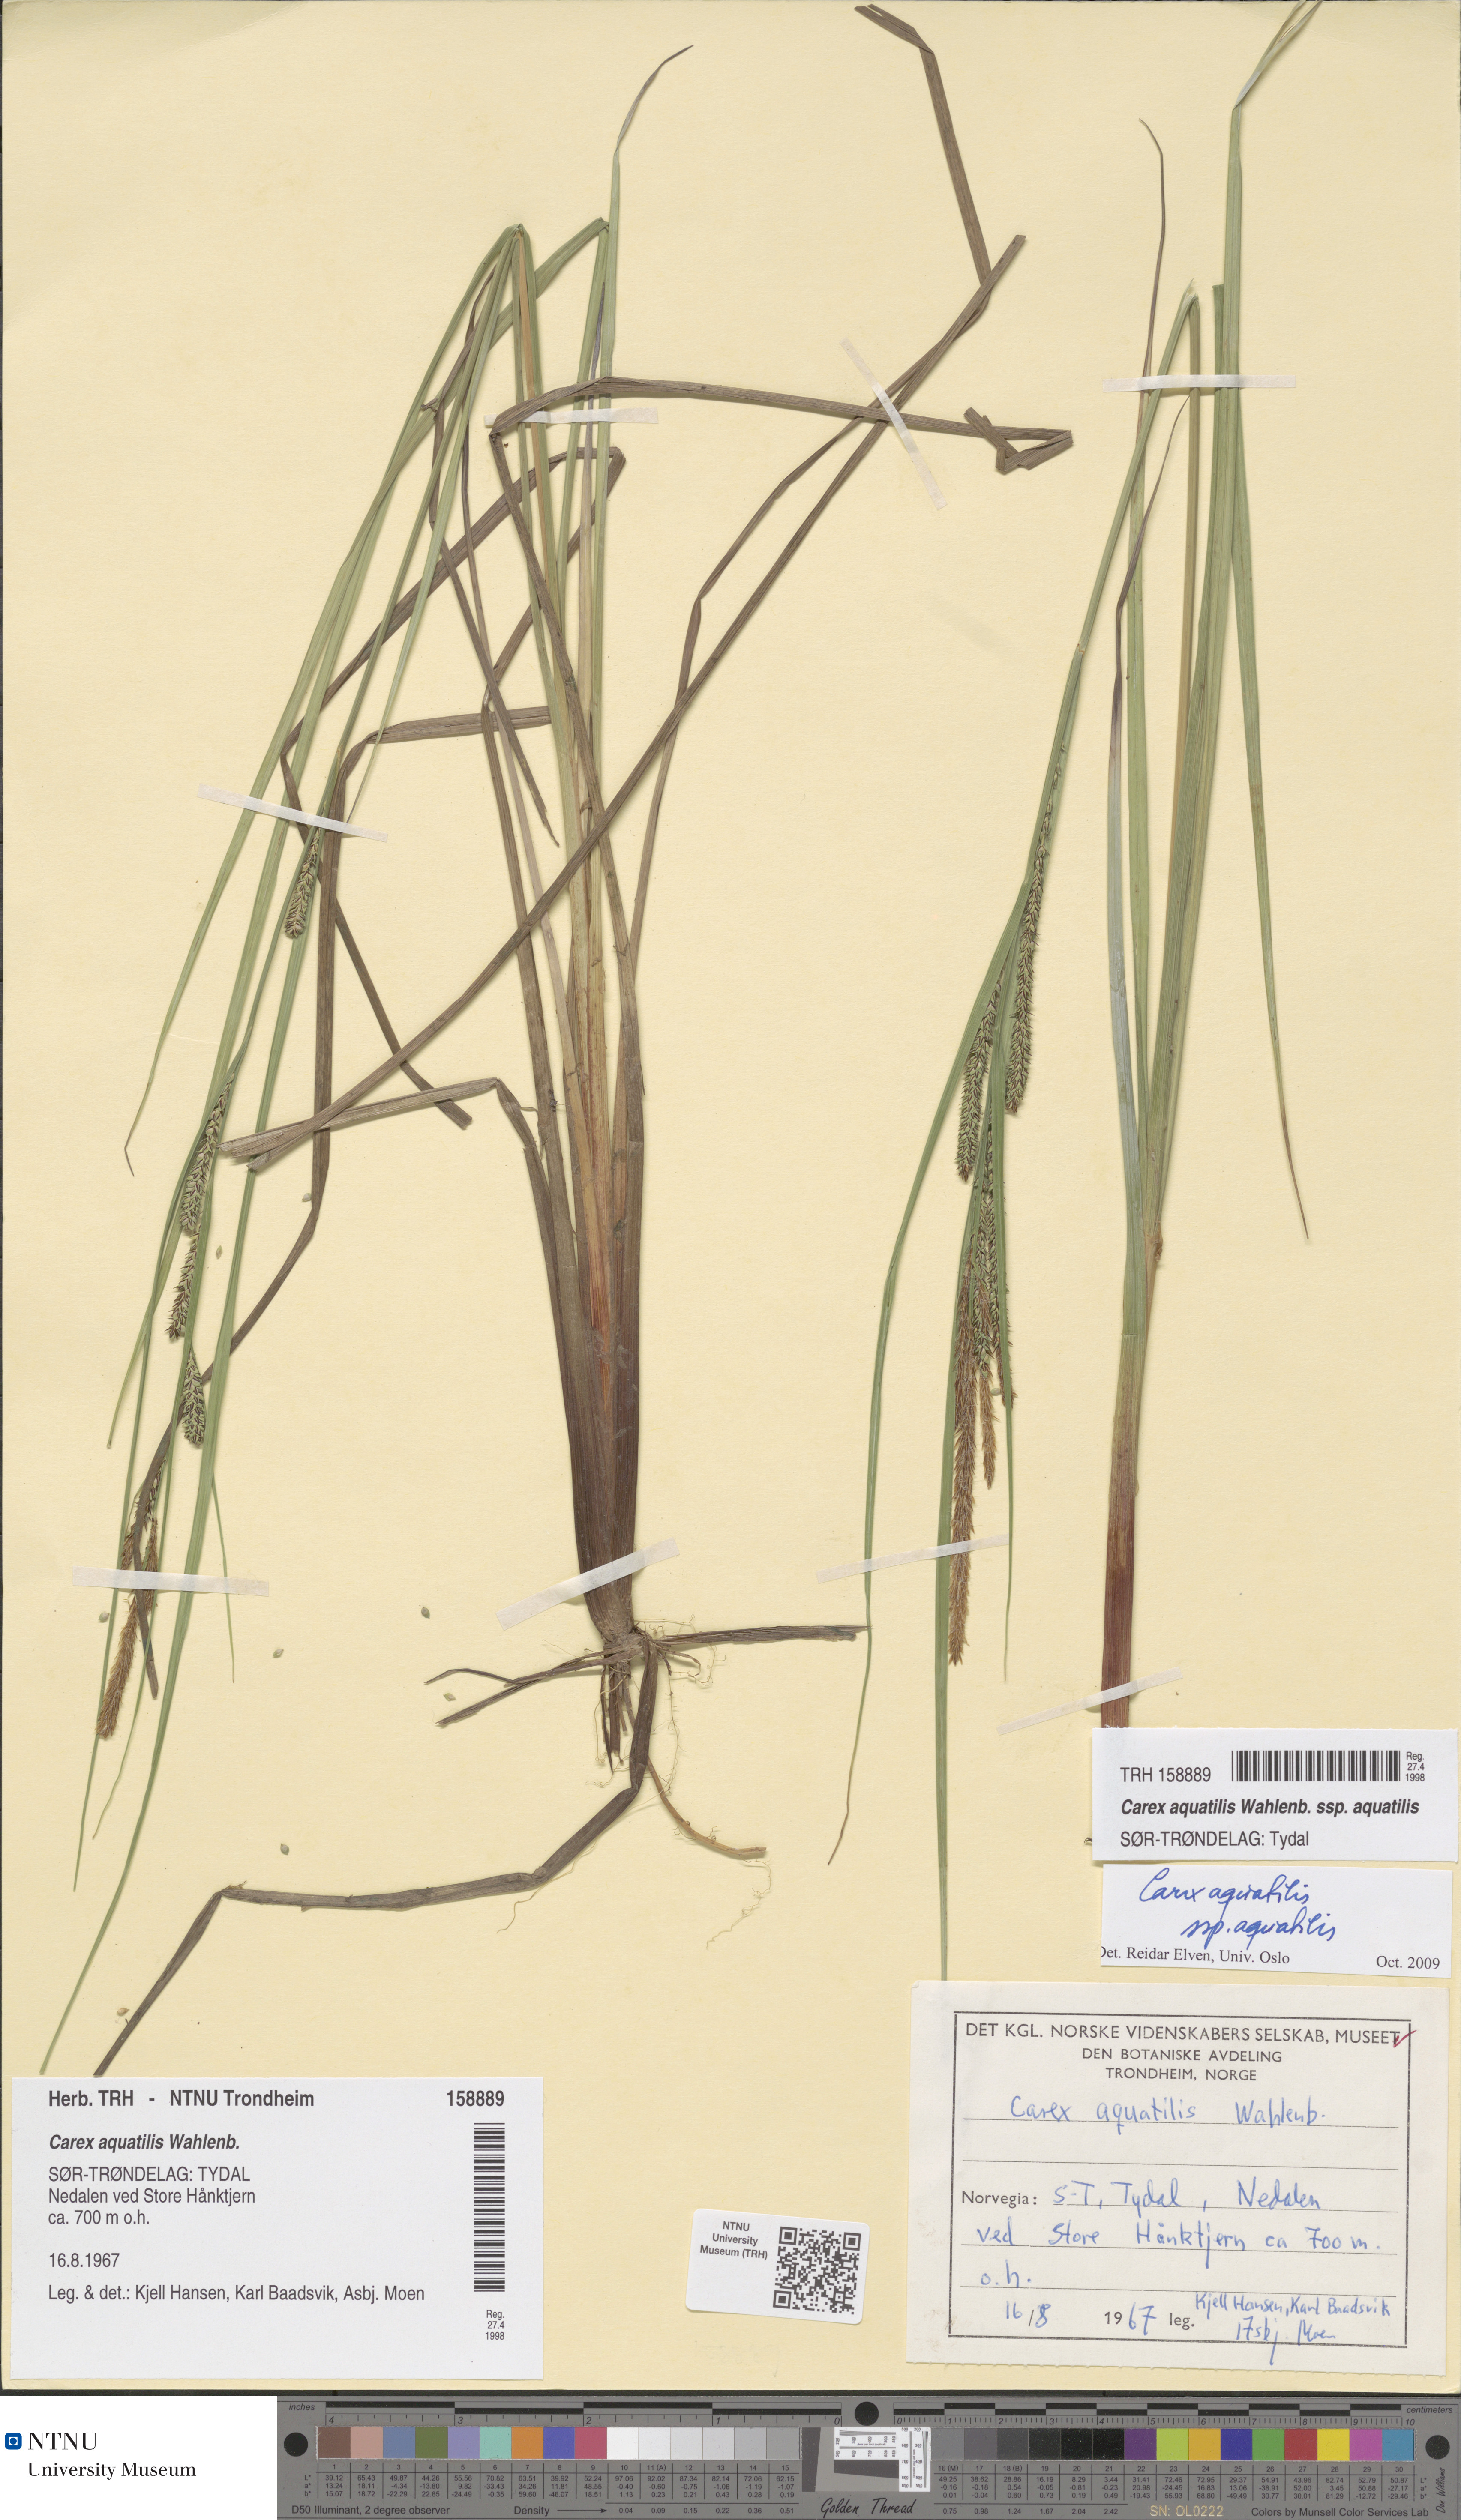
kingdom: Plantae
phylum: Tracheophyta
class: Liliopsida
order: Poales
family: Cyperaceae
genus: Carex
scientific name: Carex aquatilis
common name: Water sedge
